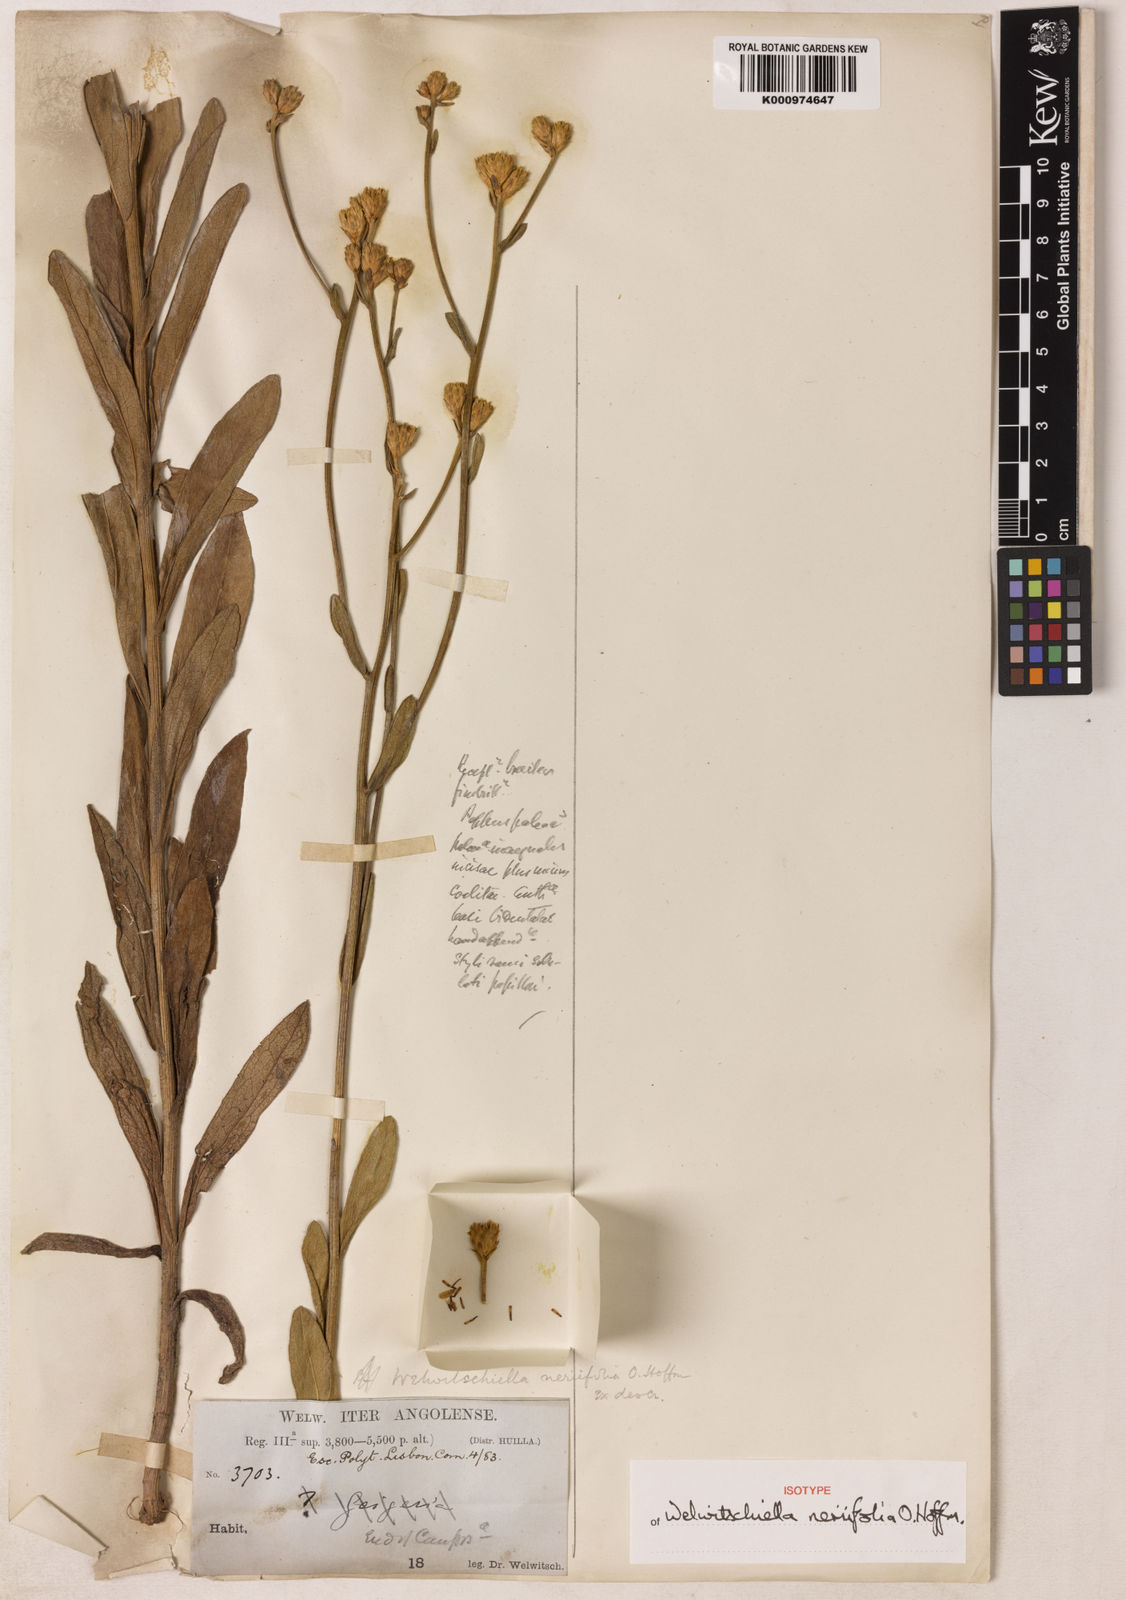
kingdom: Plantae
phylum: Tracheophyta
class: Magnoliopsida
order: Asterales
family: Asteraceae
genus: Welwitschiella
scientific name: Welwitschiella neriifolia
